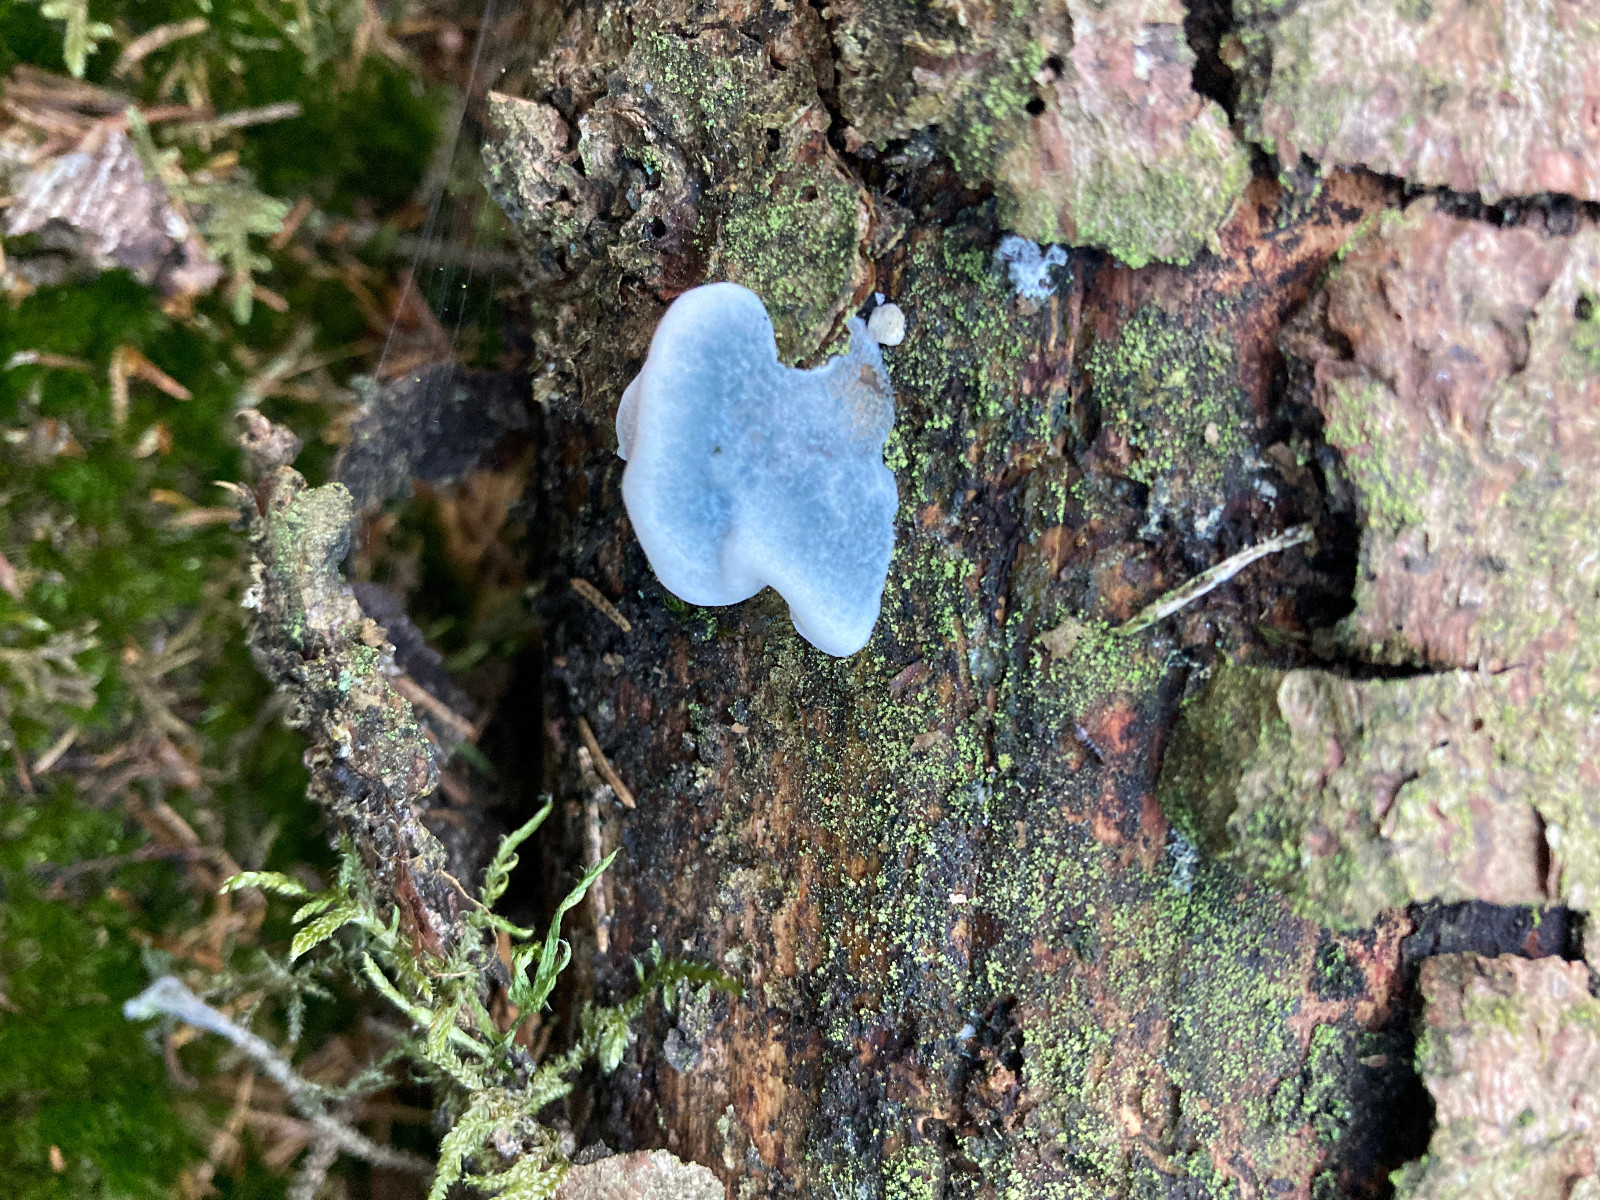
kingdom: Fungi
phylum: Basidiomycota
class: Agaricomycetes
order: Polyporales
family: Polyporaceae
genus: Cyanosporus
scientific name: Cyanosporus caesius
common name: blålig kødporesvamp
